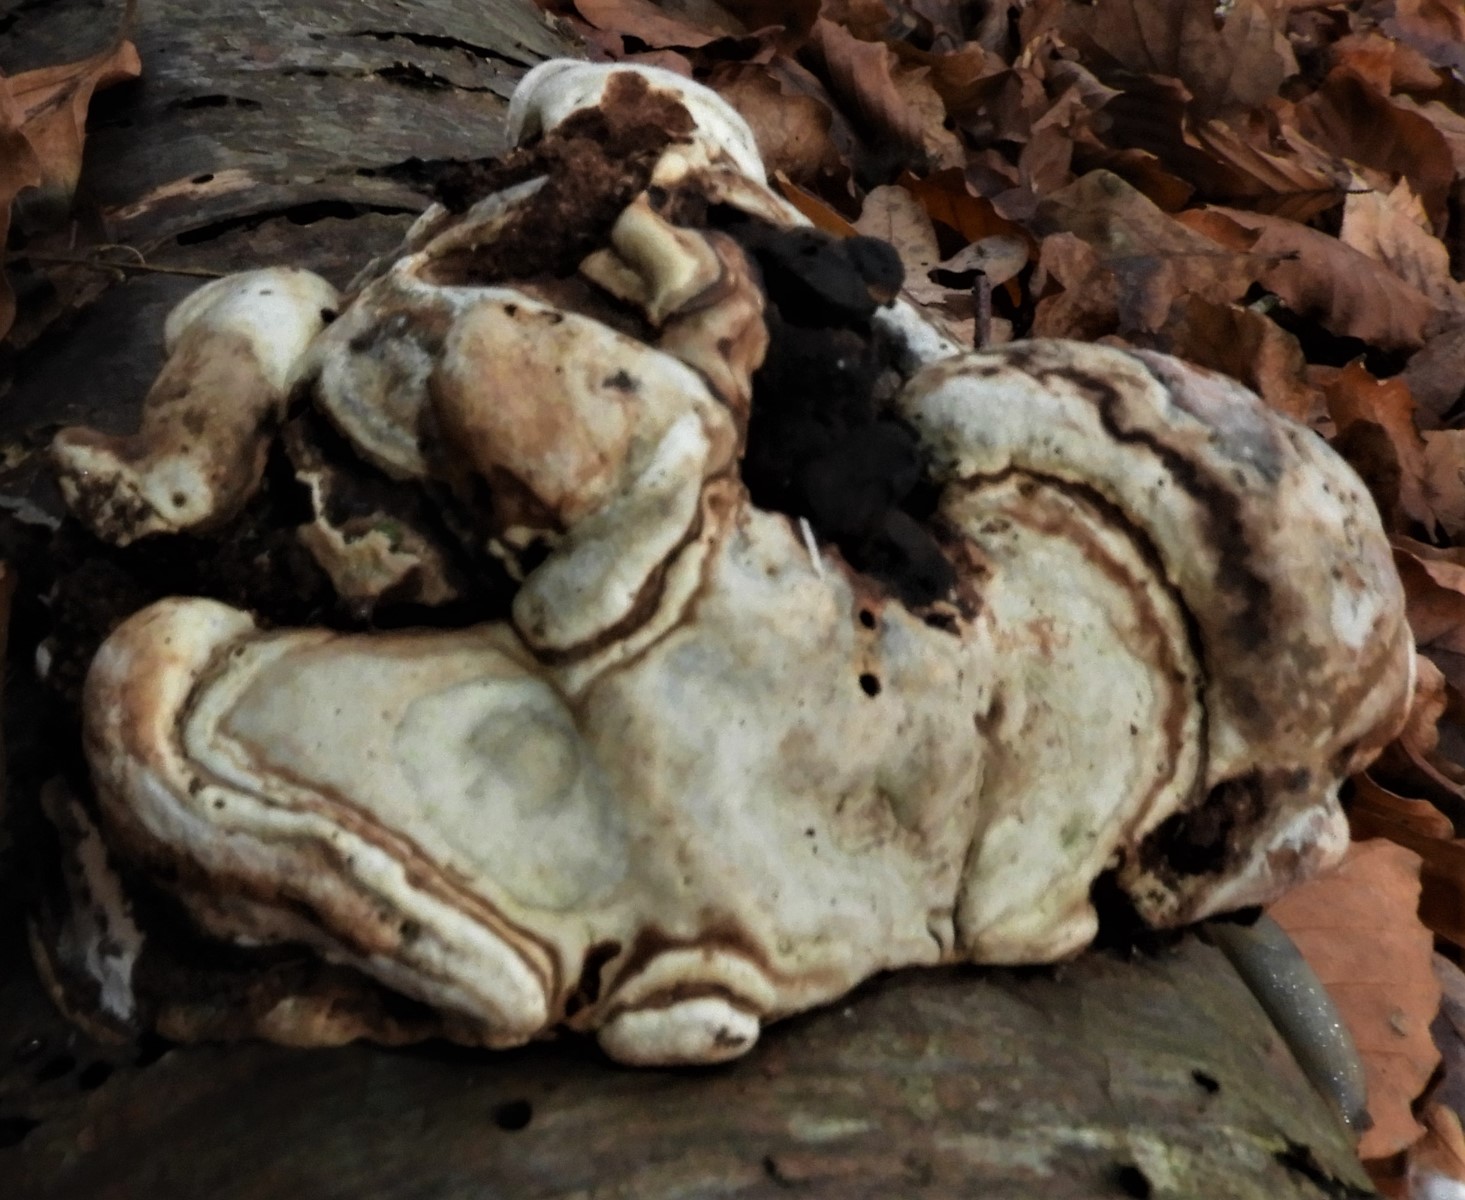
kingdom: Fungi
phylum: Basidiomycota
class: Agaricomycetes
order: Polyporales
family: Polyporaceae
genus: Fomes
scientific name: Fomes fomentarius
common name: tøndersvamp
